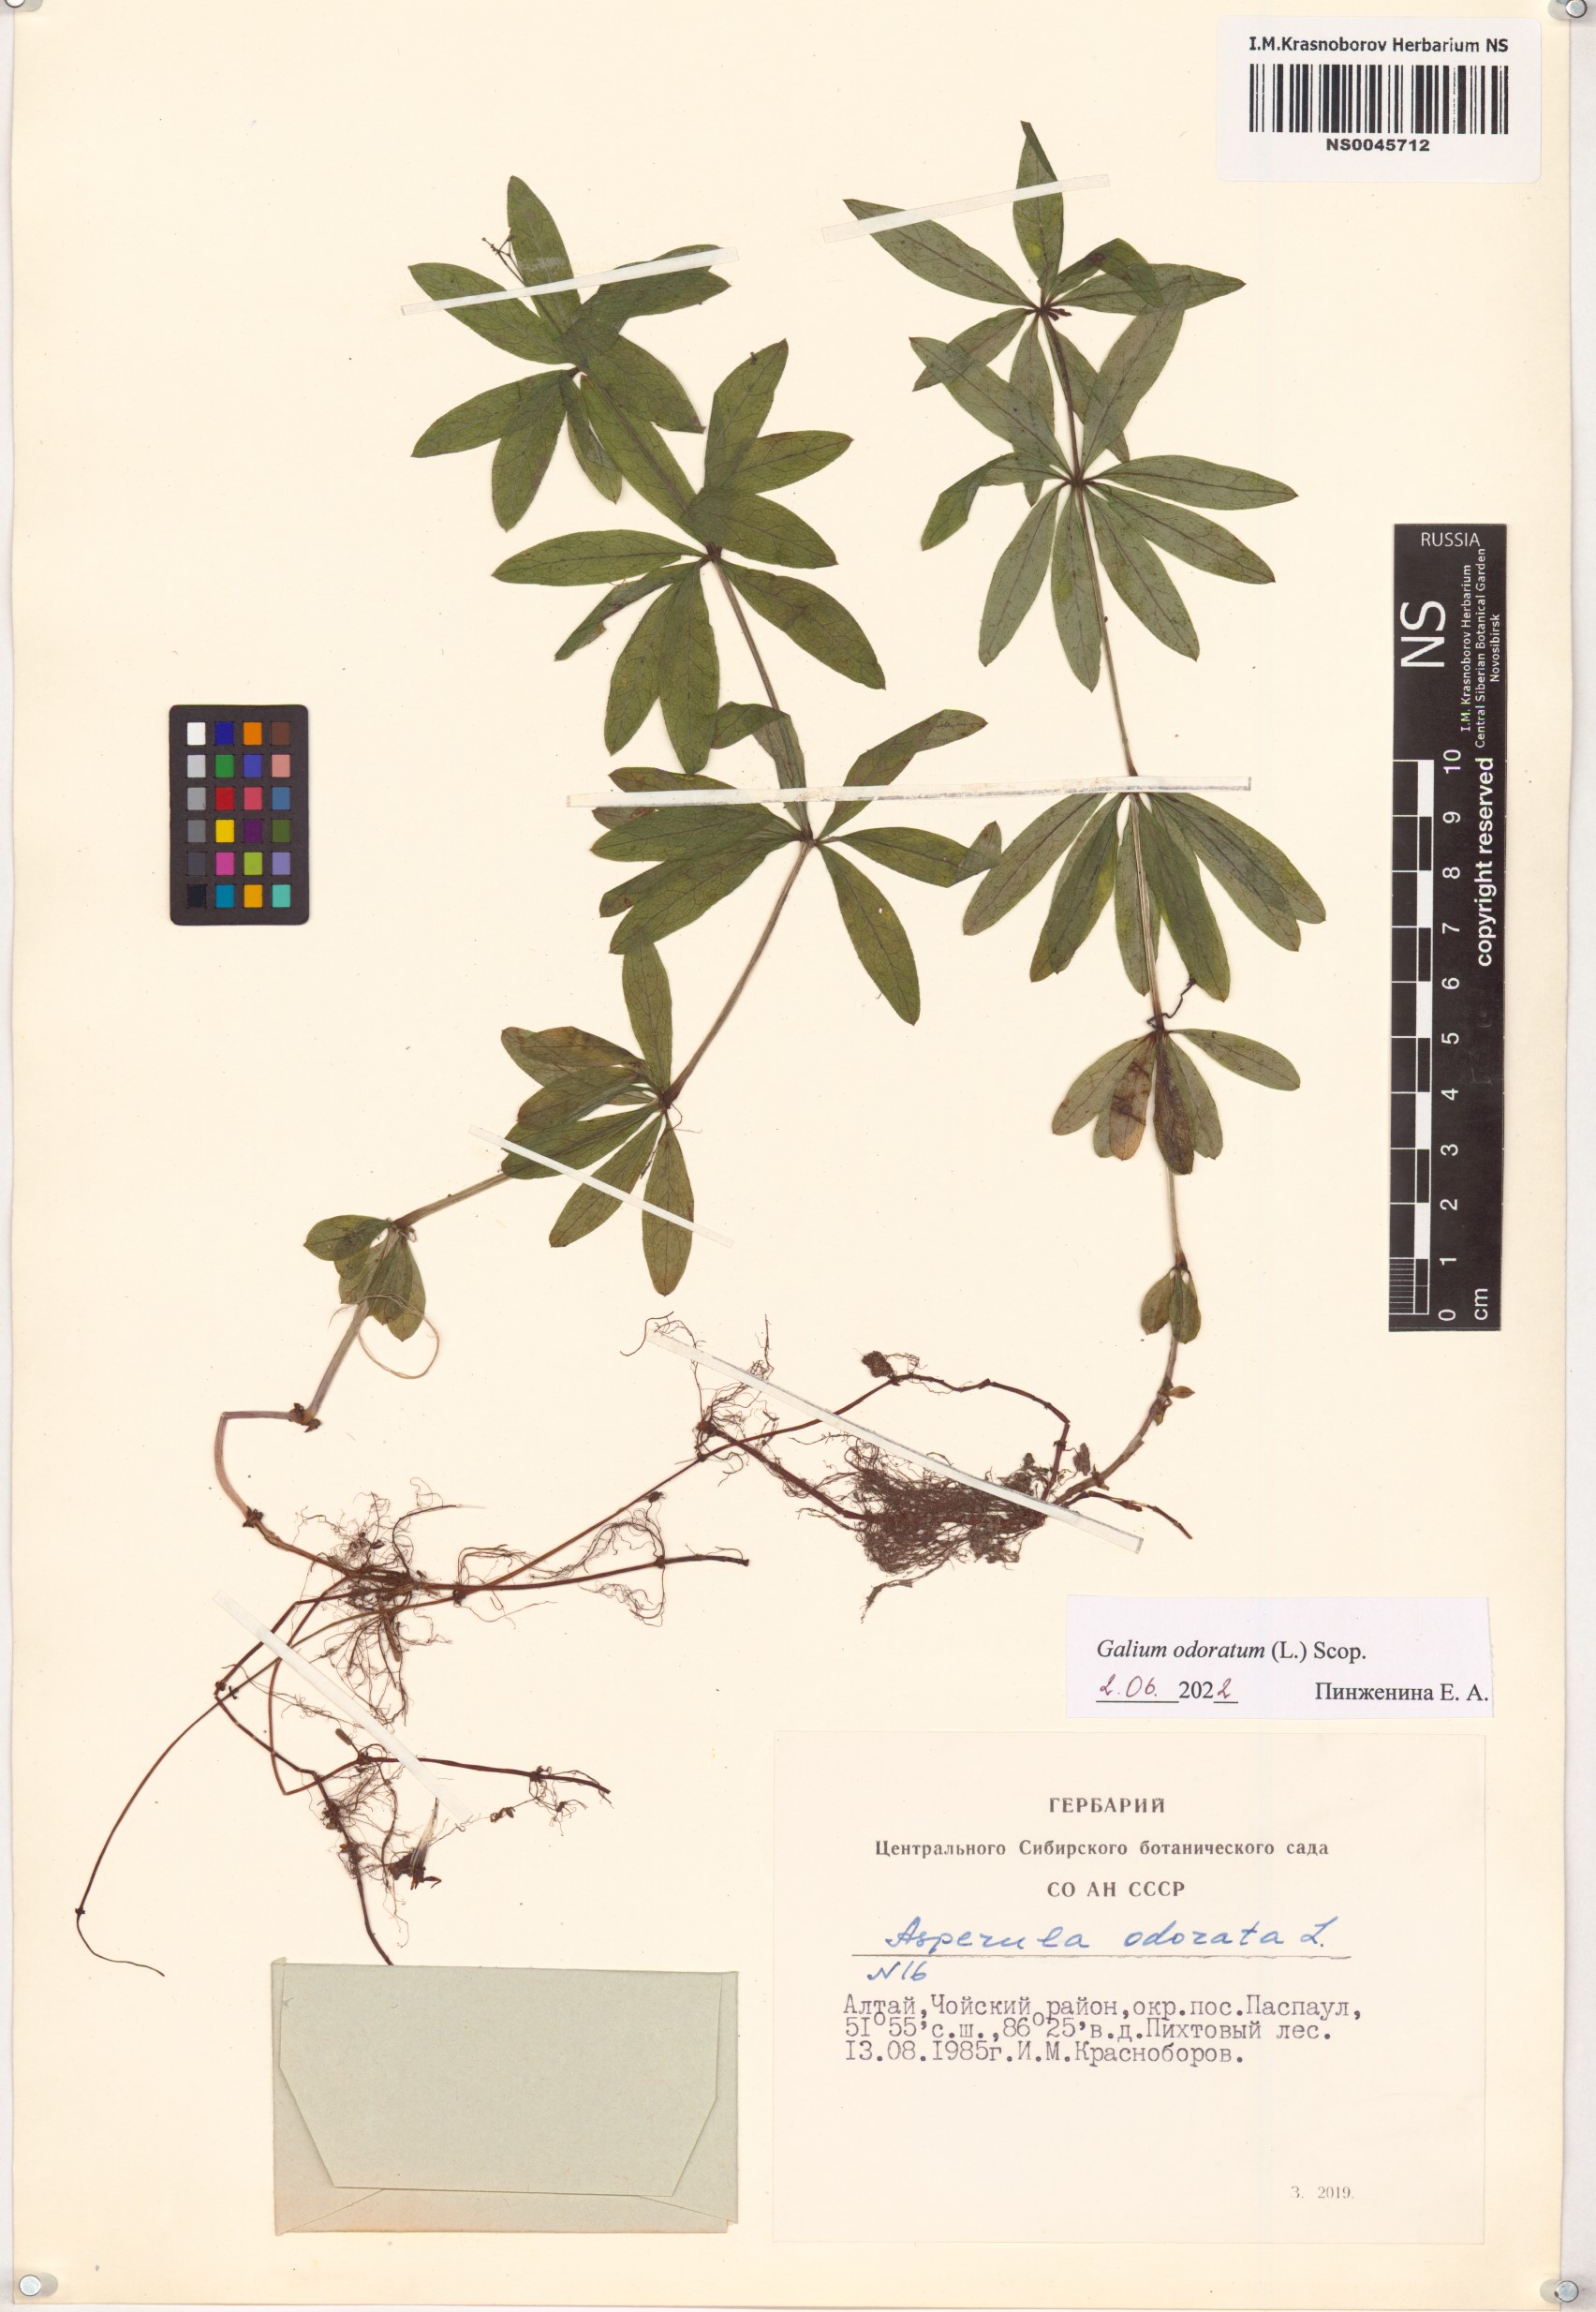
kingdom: Plantae
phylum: Tracheophyta
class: Magnoliopsida
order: Gentianales
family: Rubiaceae
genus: Galium
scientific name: Galium odoratum
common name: Sweet woodruff
